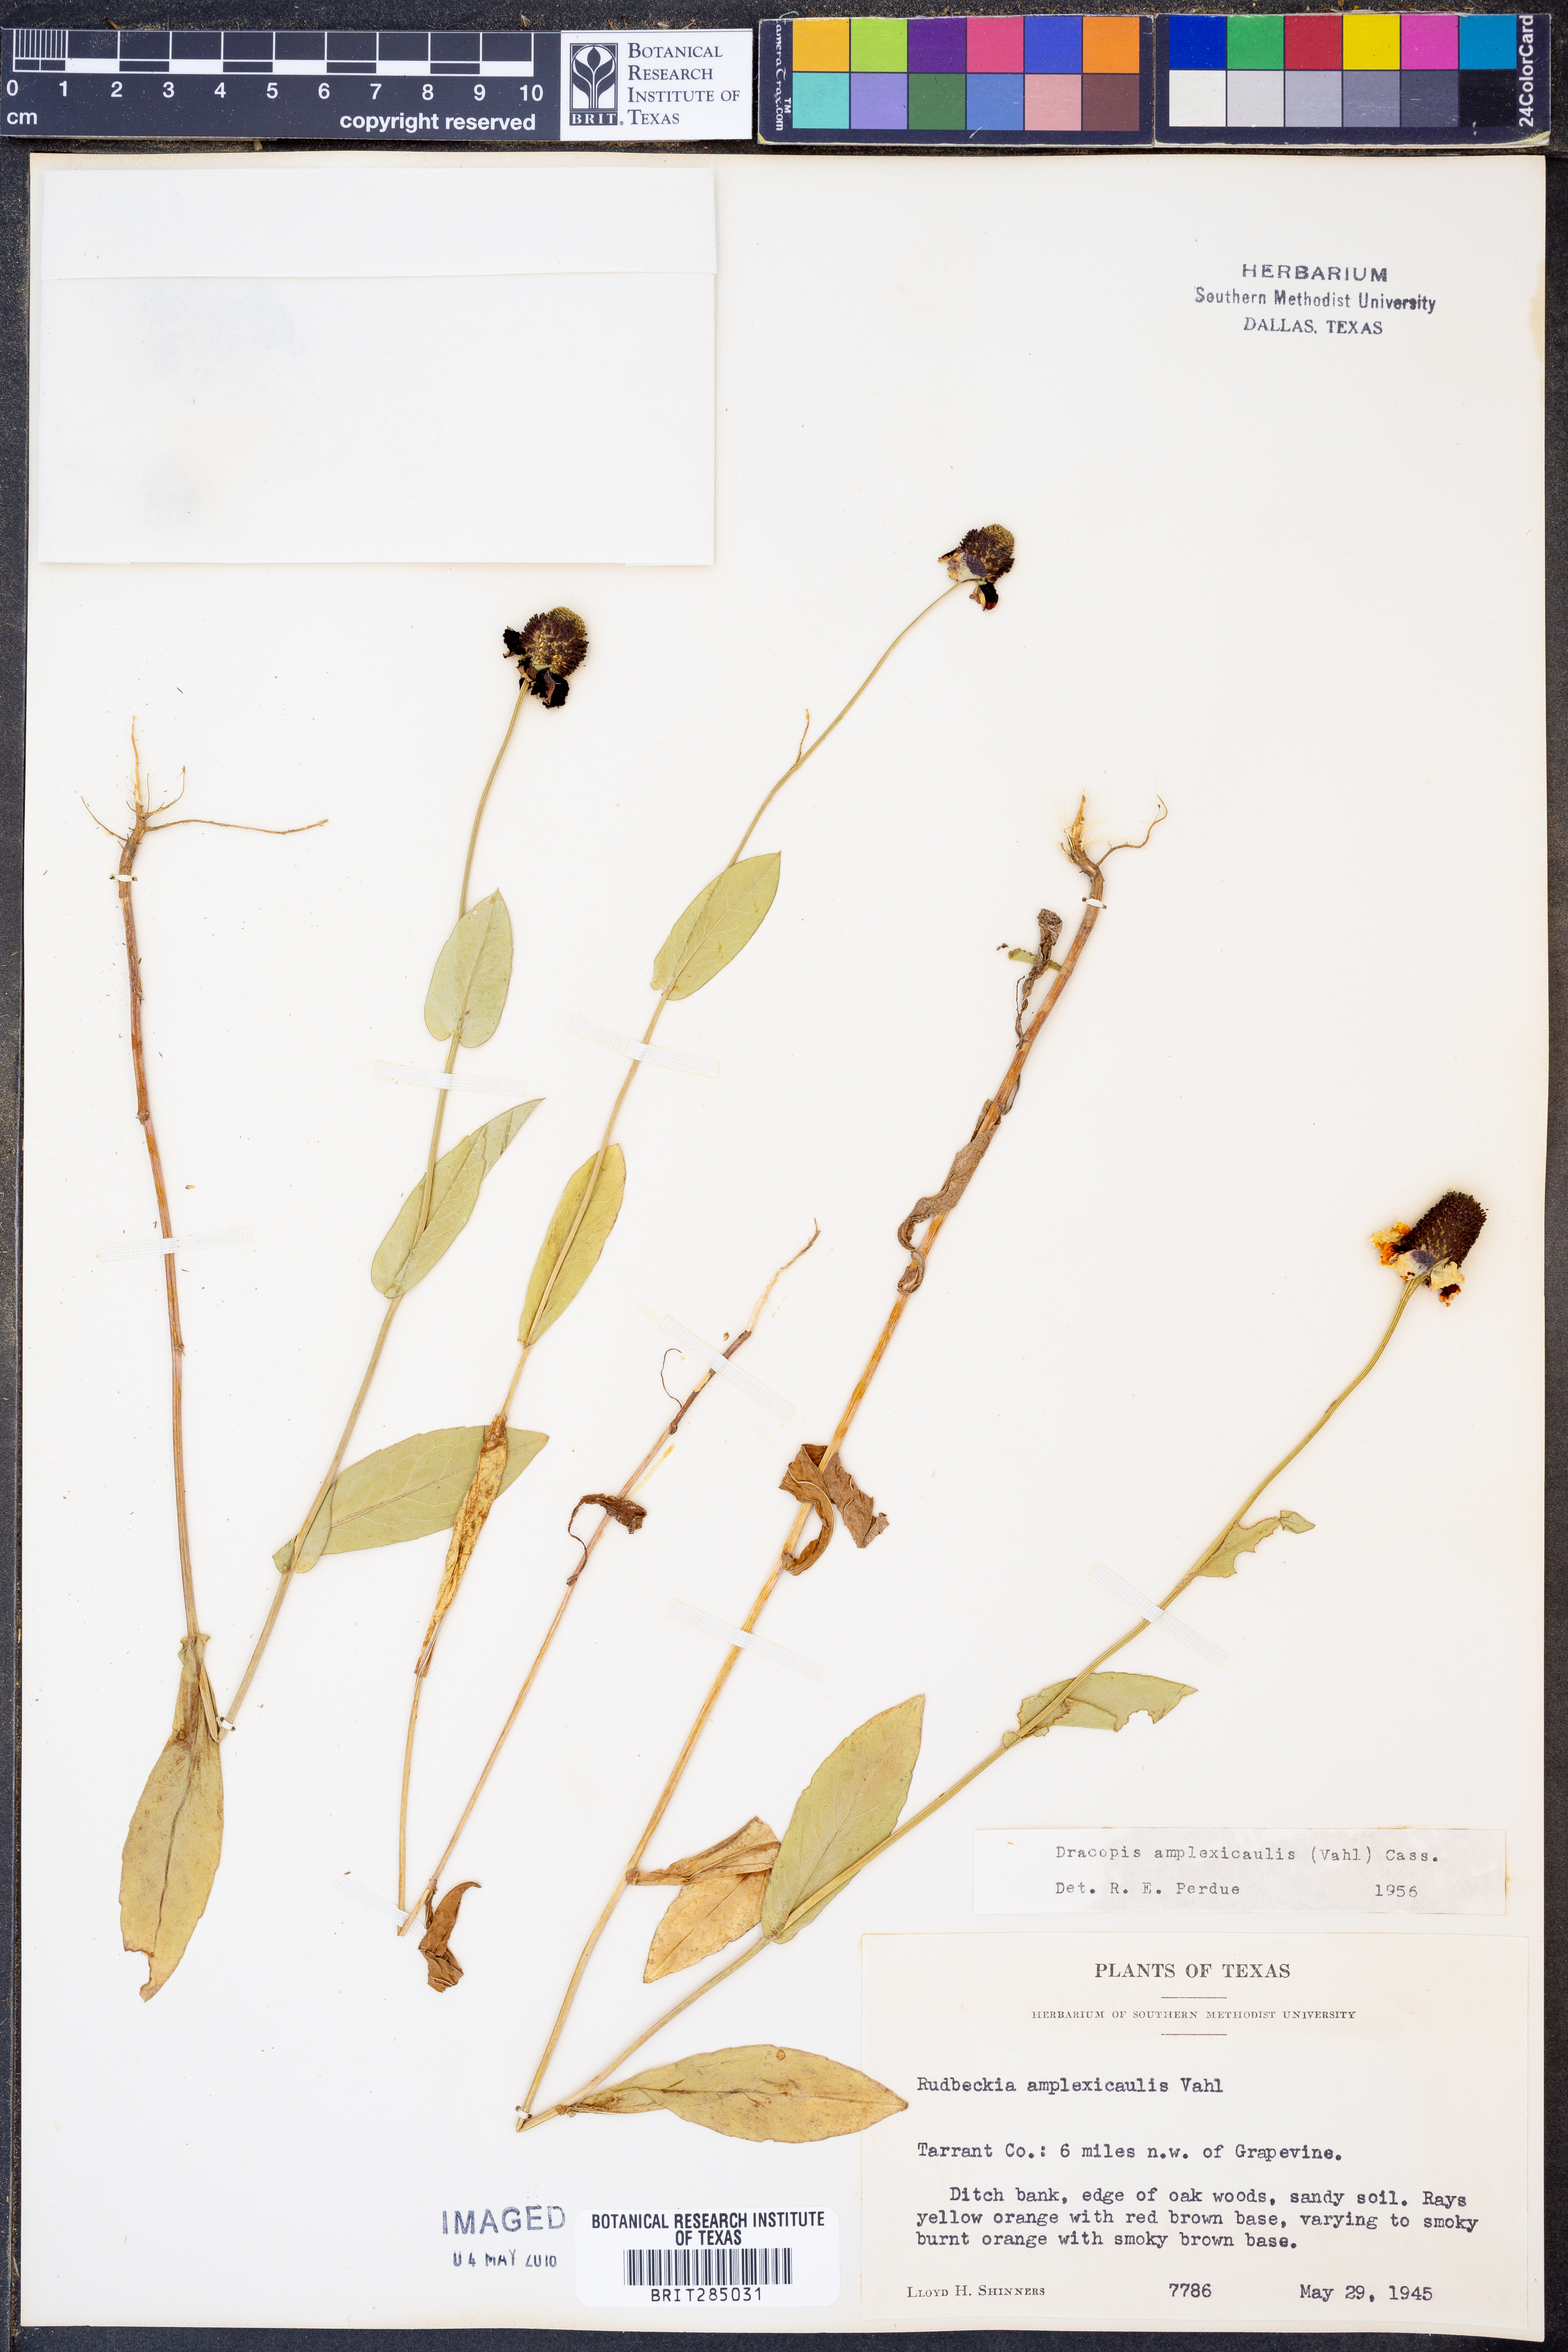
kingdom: Plantae
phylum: Tracheophyta
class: Magnoliopsida
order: Asterales
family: Asteraceae
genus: Rudbeckia
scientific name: Rudbeckia amplexicaulis
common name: Clasping-leaf coneflower
